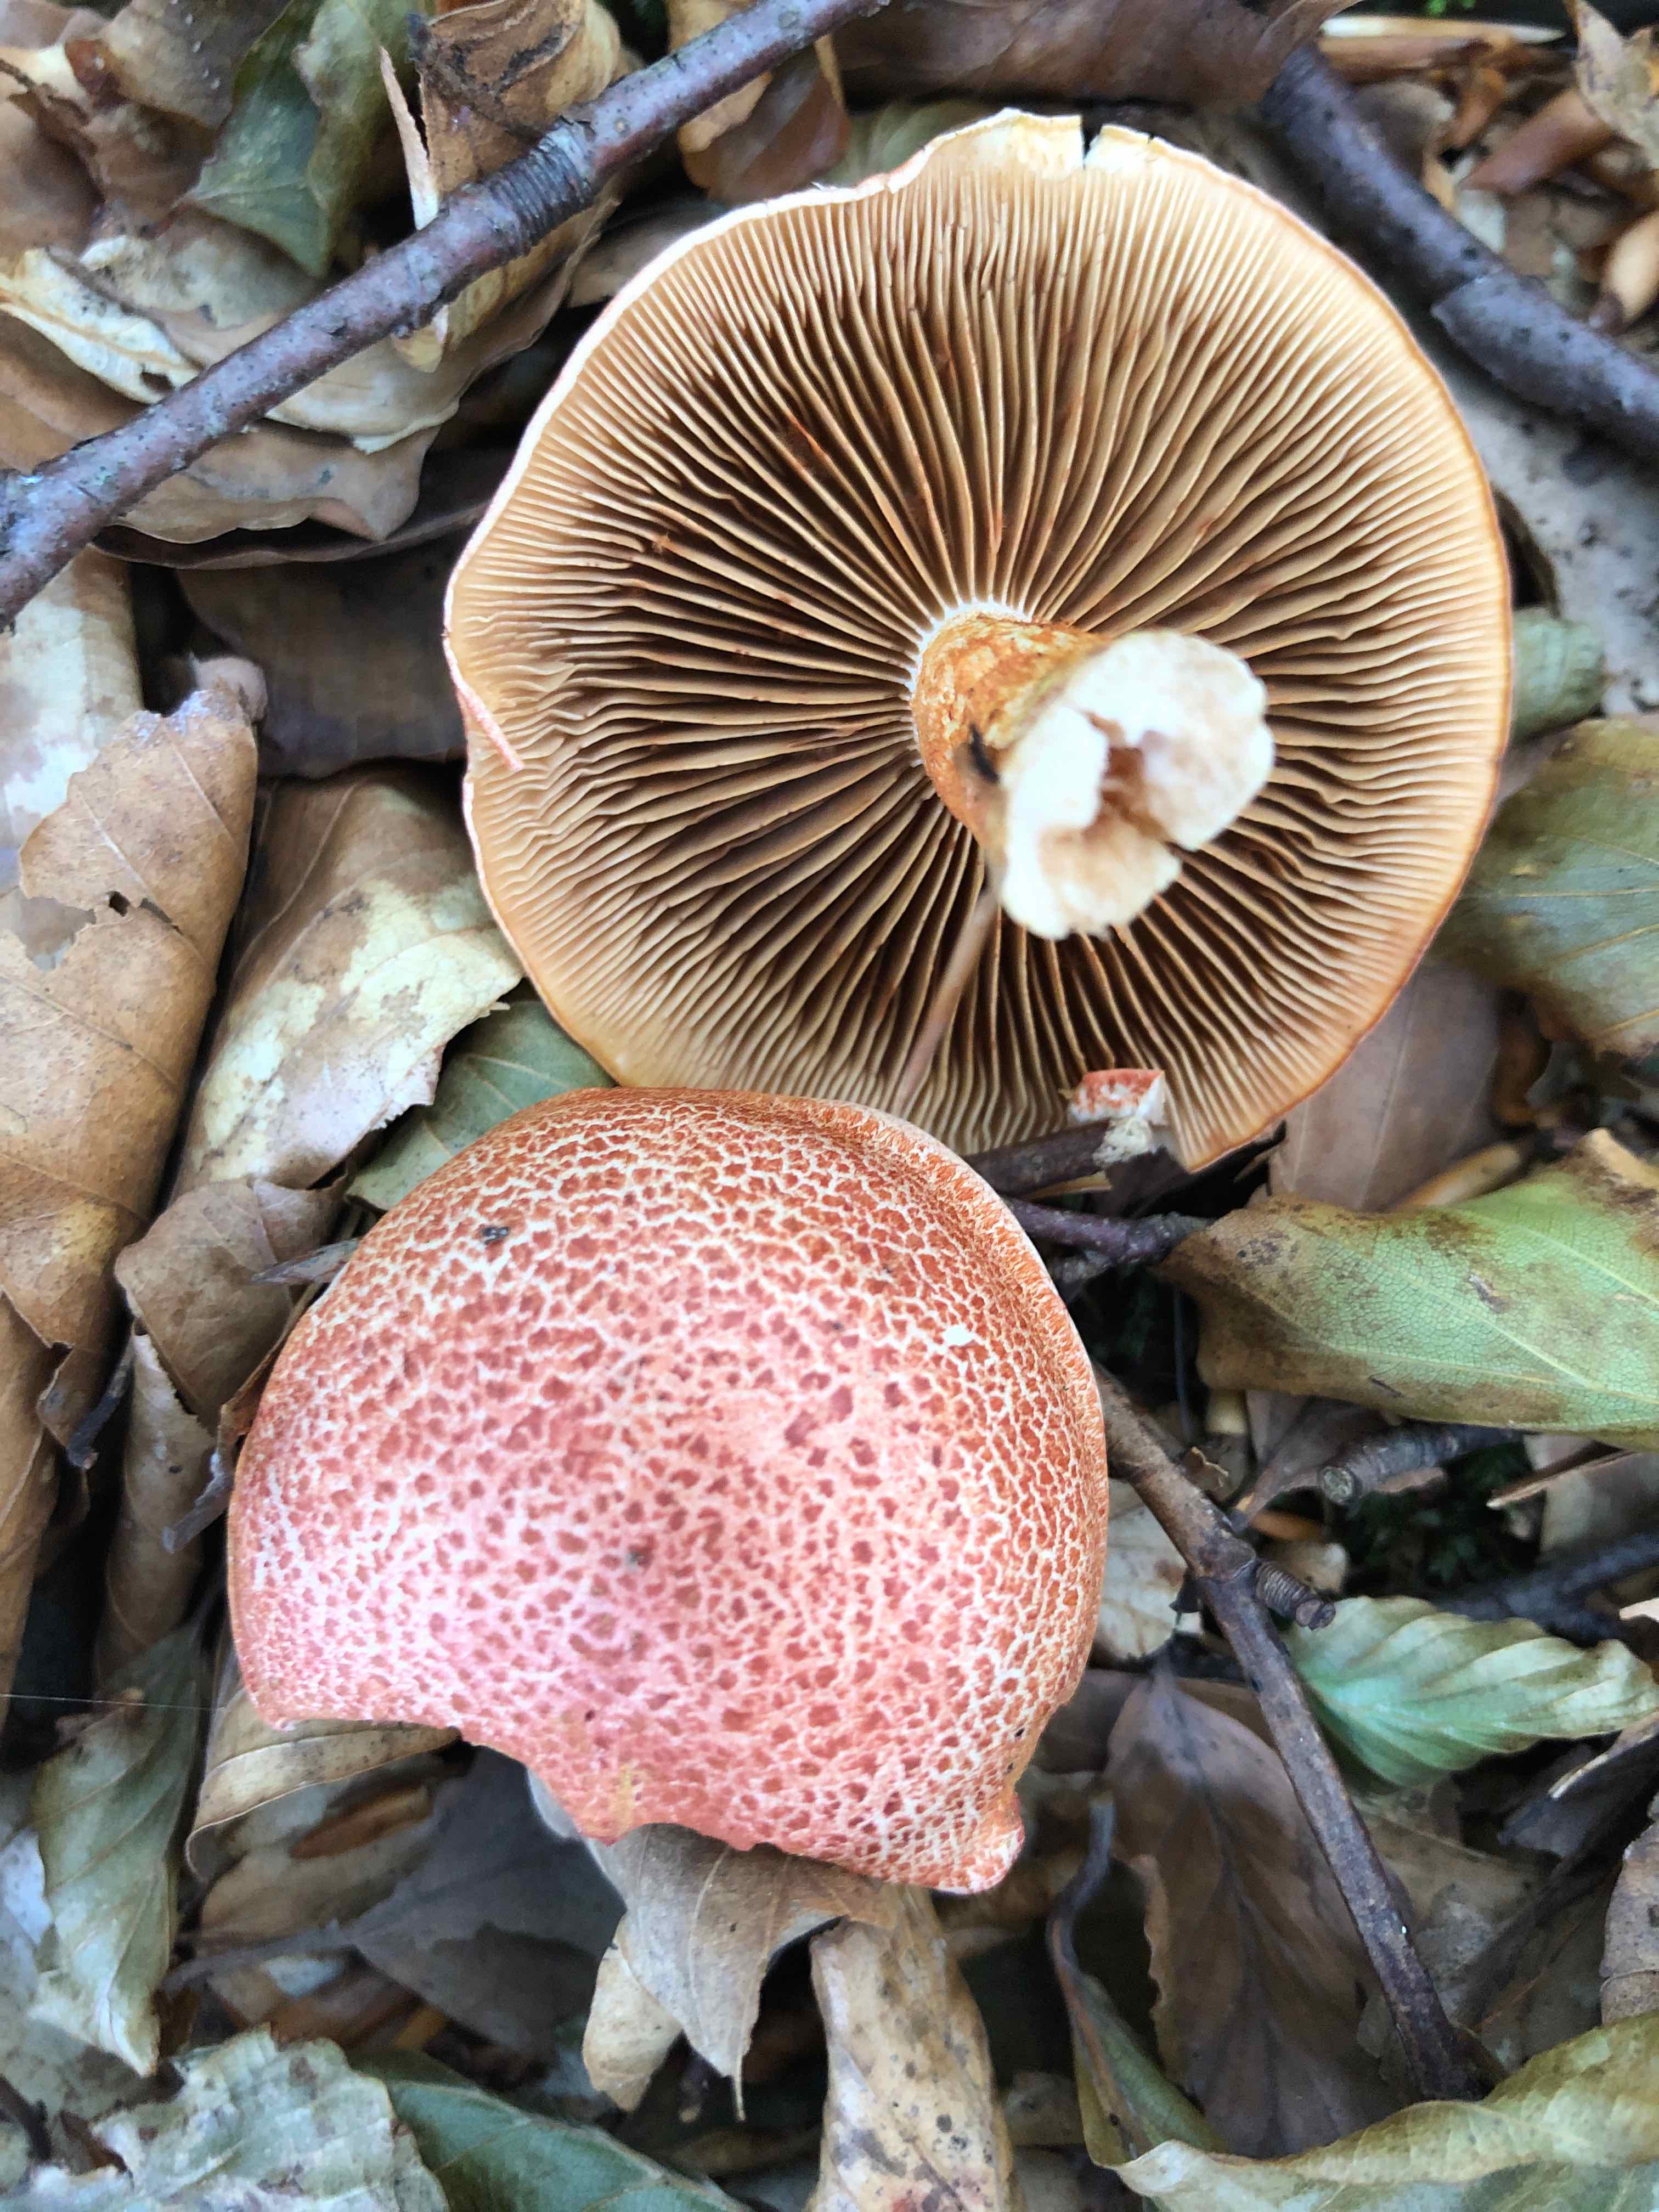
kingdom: Fungi
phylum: Basidiomycota
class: Agaricomycetes
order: Agaricales
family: Cortinariaceae
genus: Cortinarius
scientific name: Cortinarius bolaris
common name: cinnoberskællet slørhat
